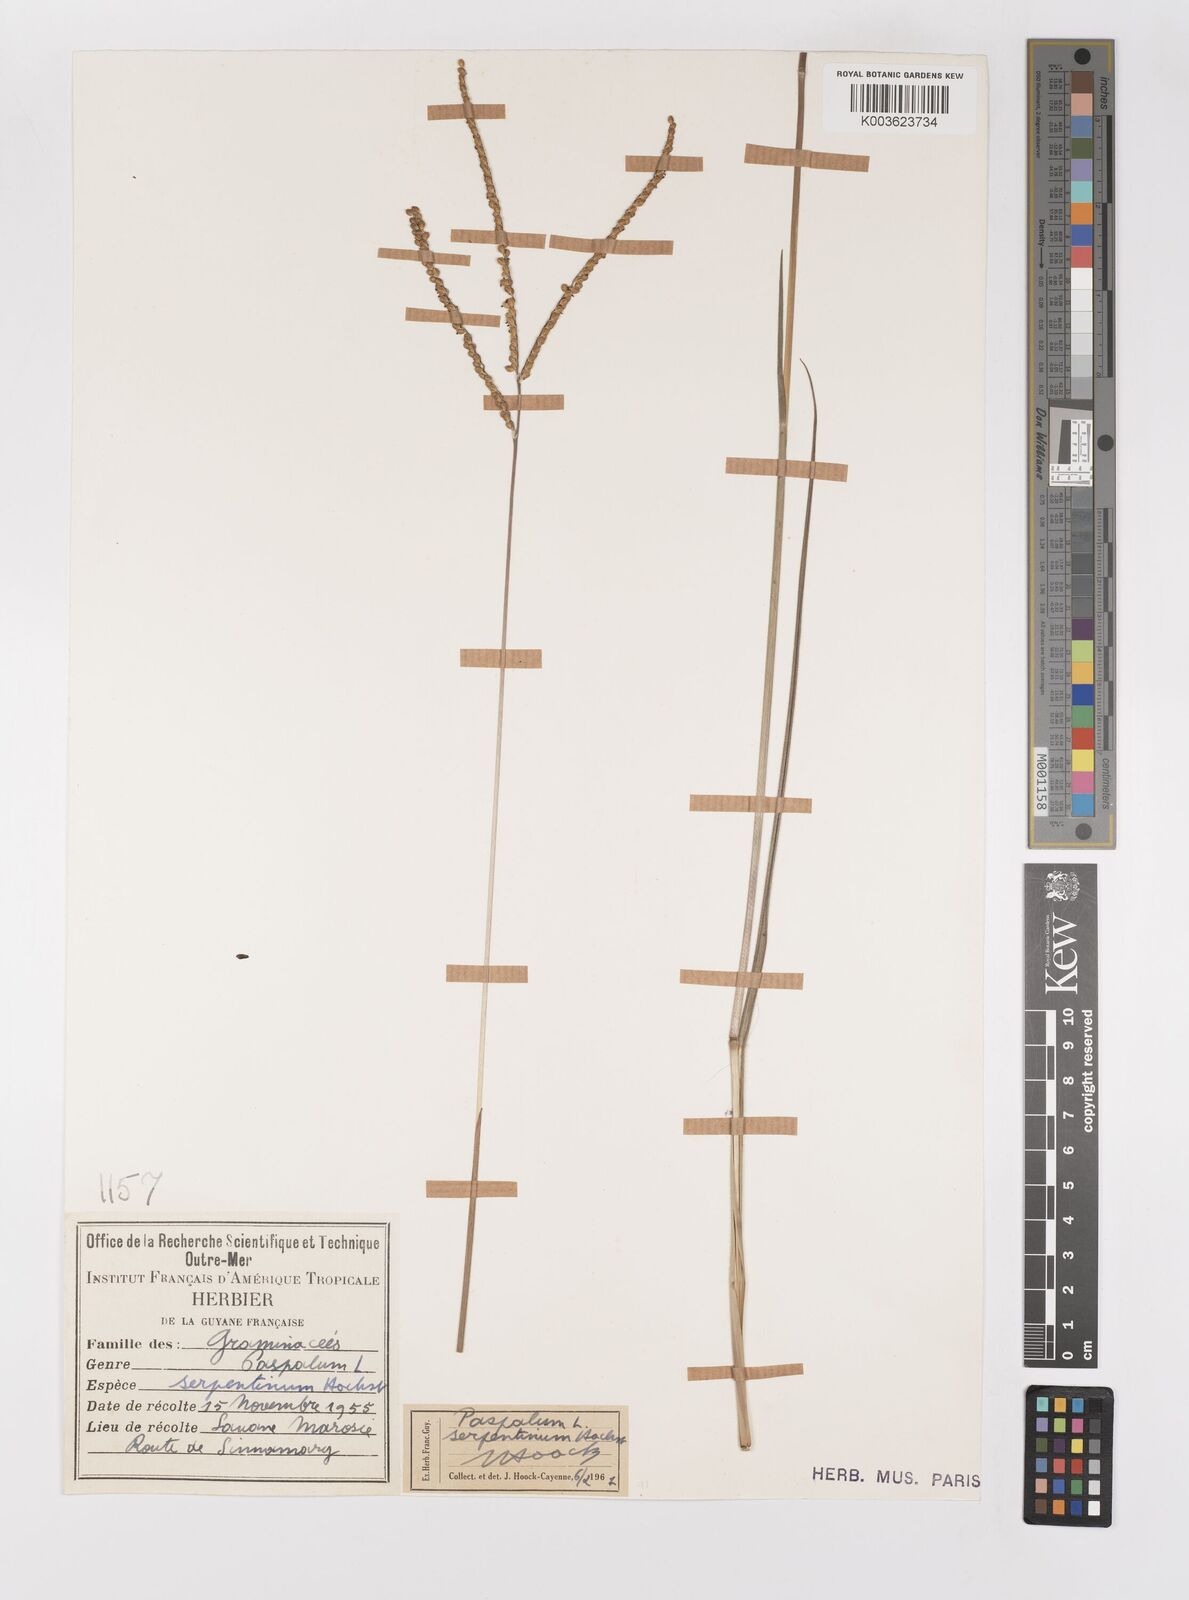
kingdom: Plantae
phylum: Tracheophyta
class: Liliopsida
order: Poales
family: Poaceae
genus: Paspalum
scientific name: Paspalum serpentinum
